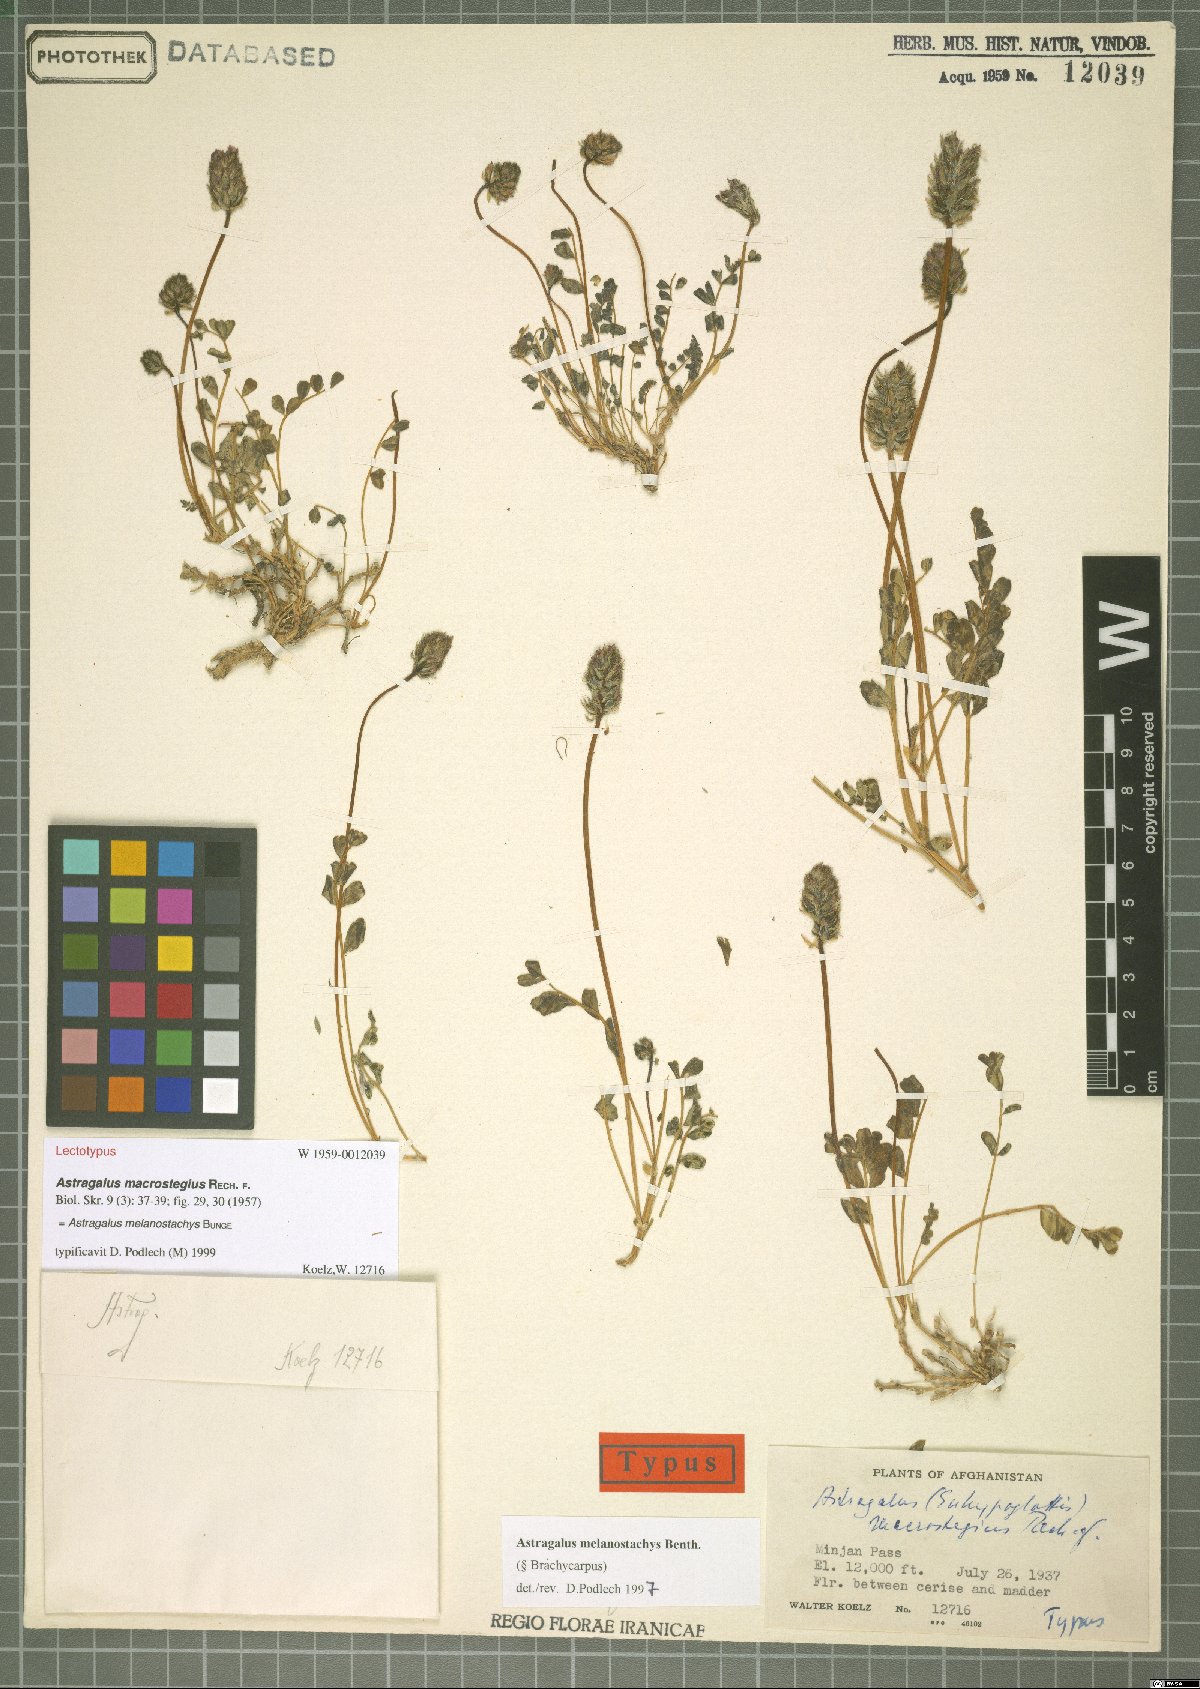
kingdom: Plantae
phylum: Tracheophyta
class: Magnoliopsida
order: Fabales
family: Fabaceae
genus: Astragalus
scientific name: Astragalus melanostachys
